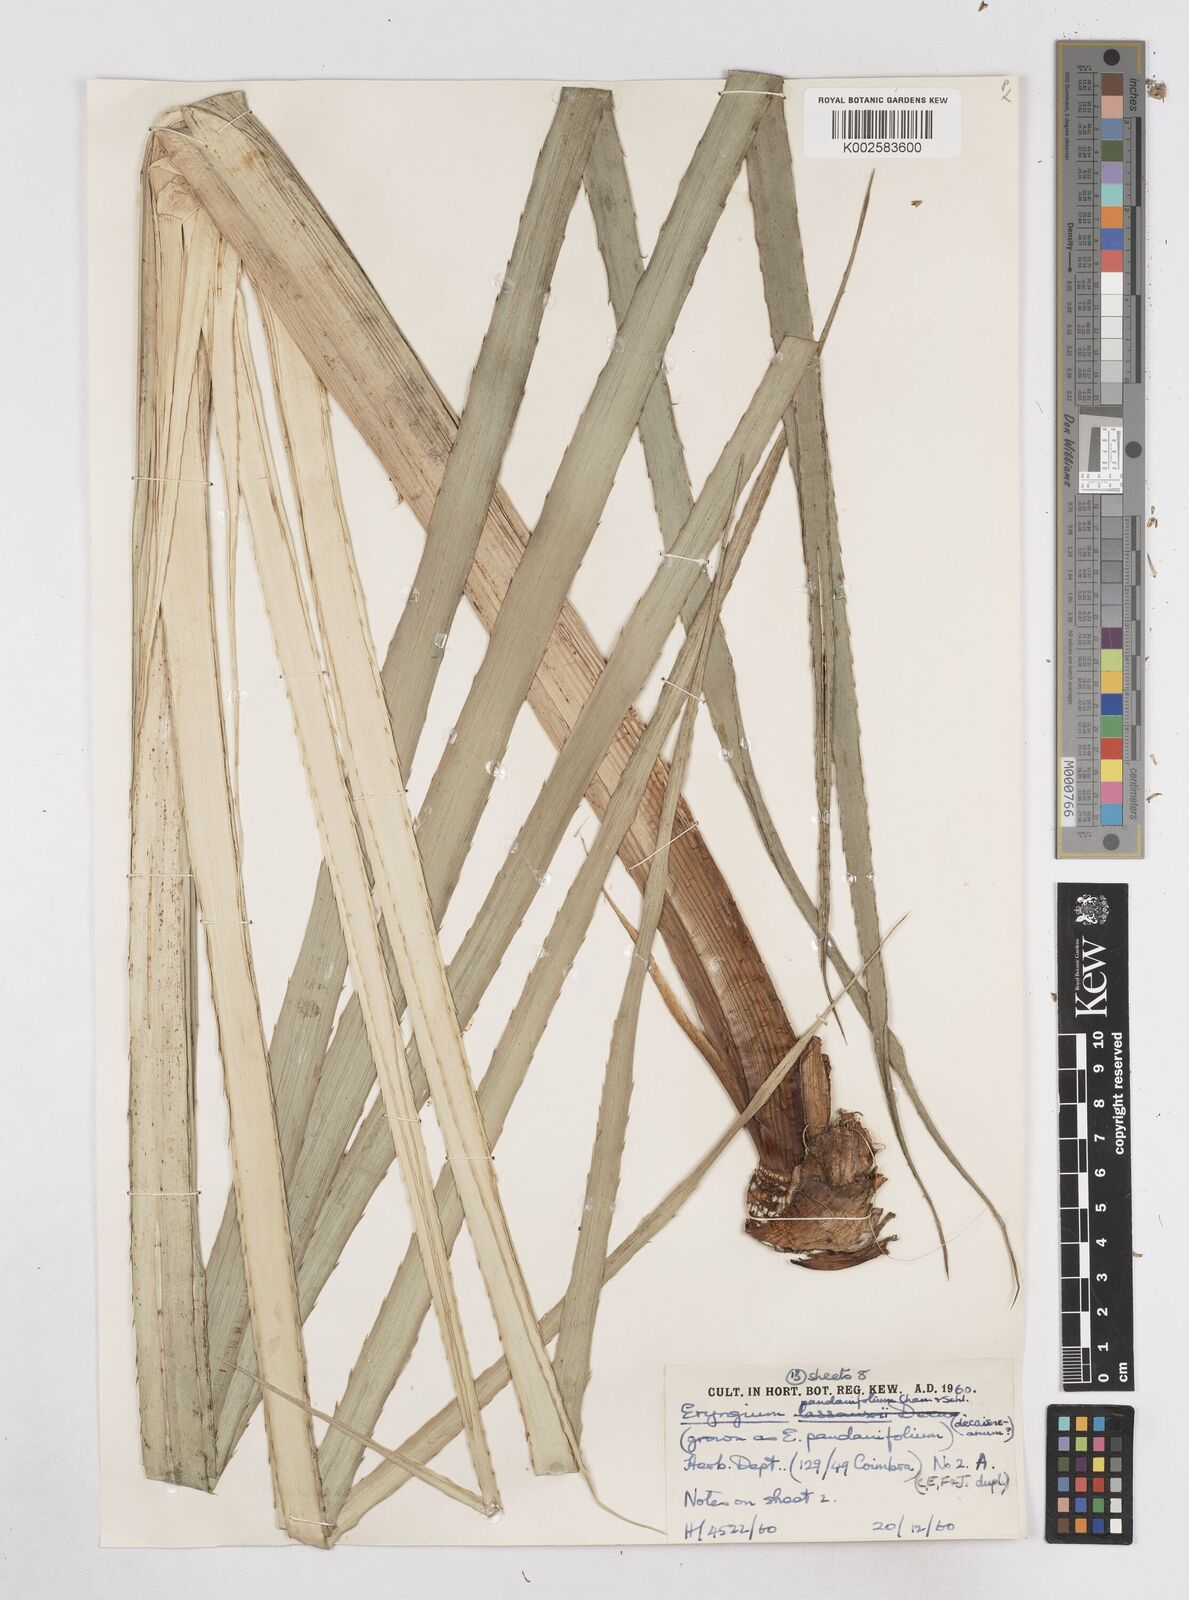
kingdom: Plantae
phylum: Tracheophyta
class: Magnoliopsida
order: Apiales
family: Apiaceae
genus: Eryngium
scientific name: Eryngium pandanifolium
